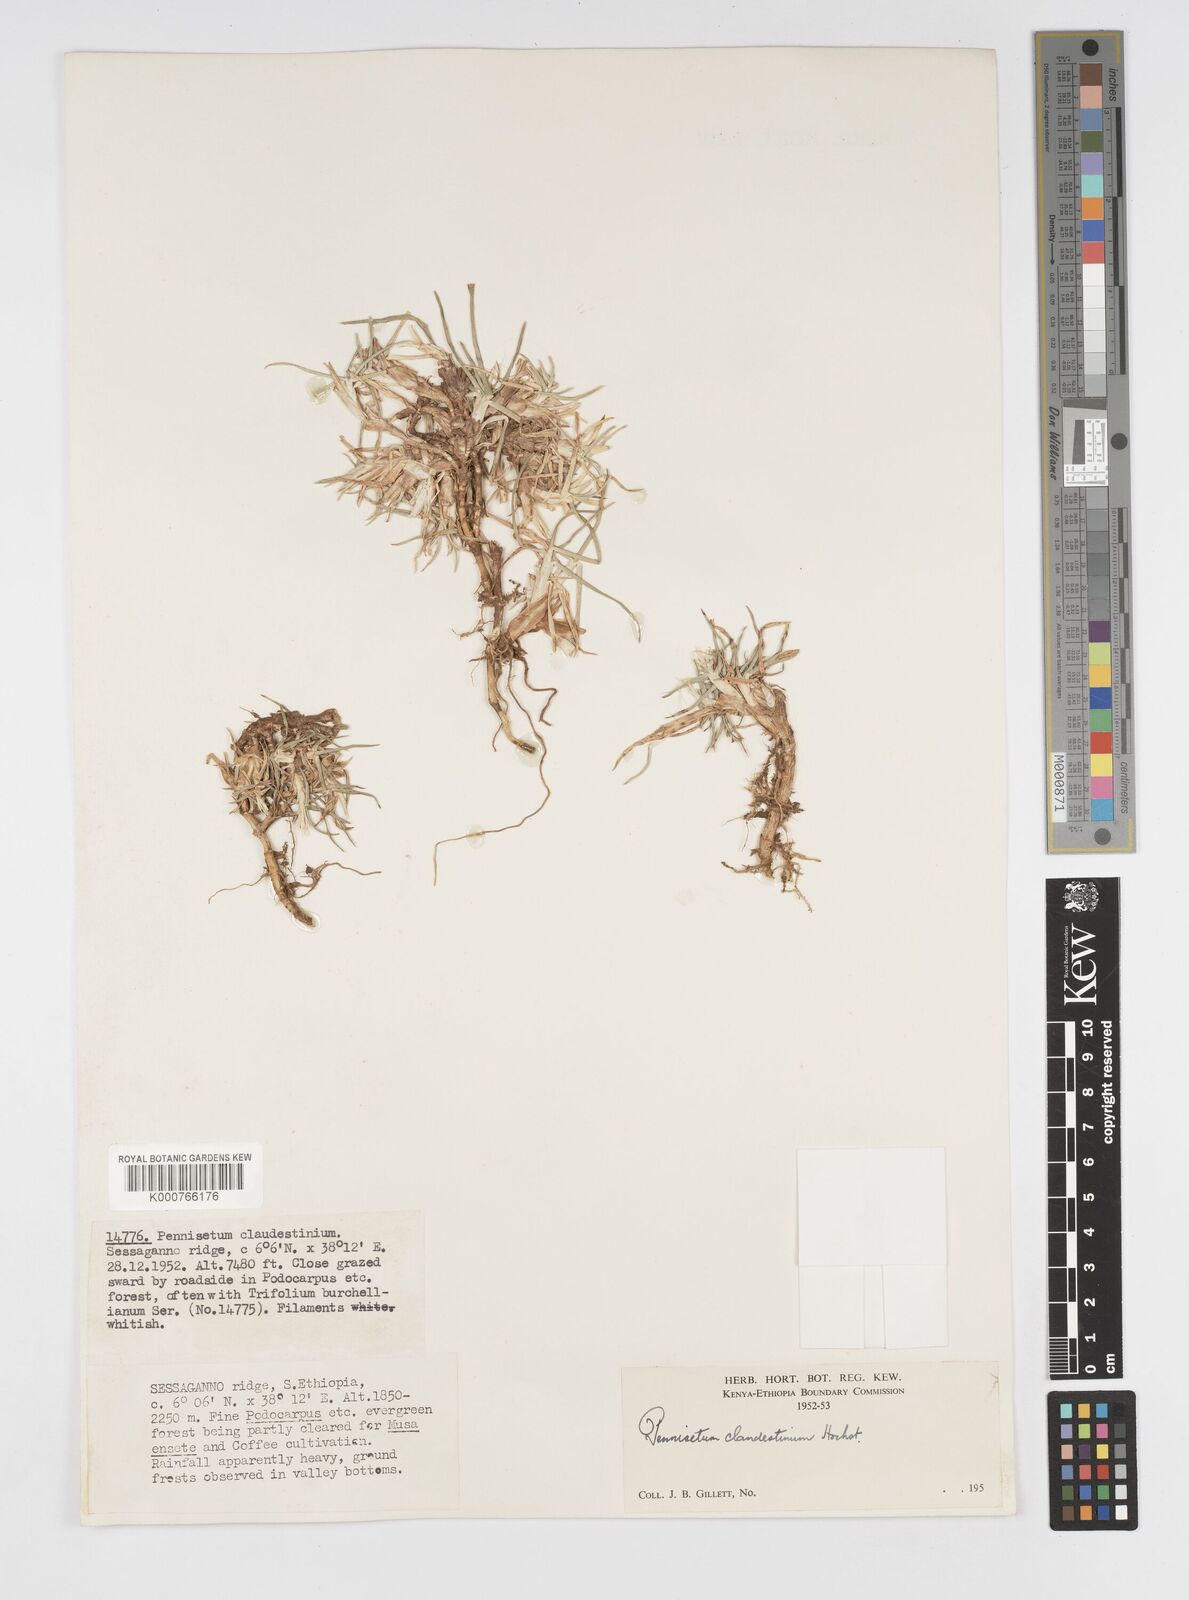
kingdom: Plantae
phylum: Tracheophyta
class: Liliopsida
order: Poales
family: Poaceae
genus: Cenchrus
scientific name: Cenchrus clandestinus
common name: Kikuyugrass
